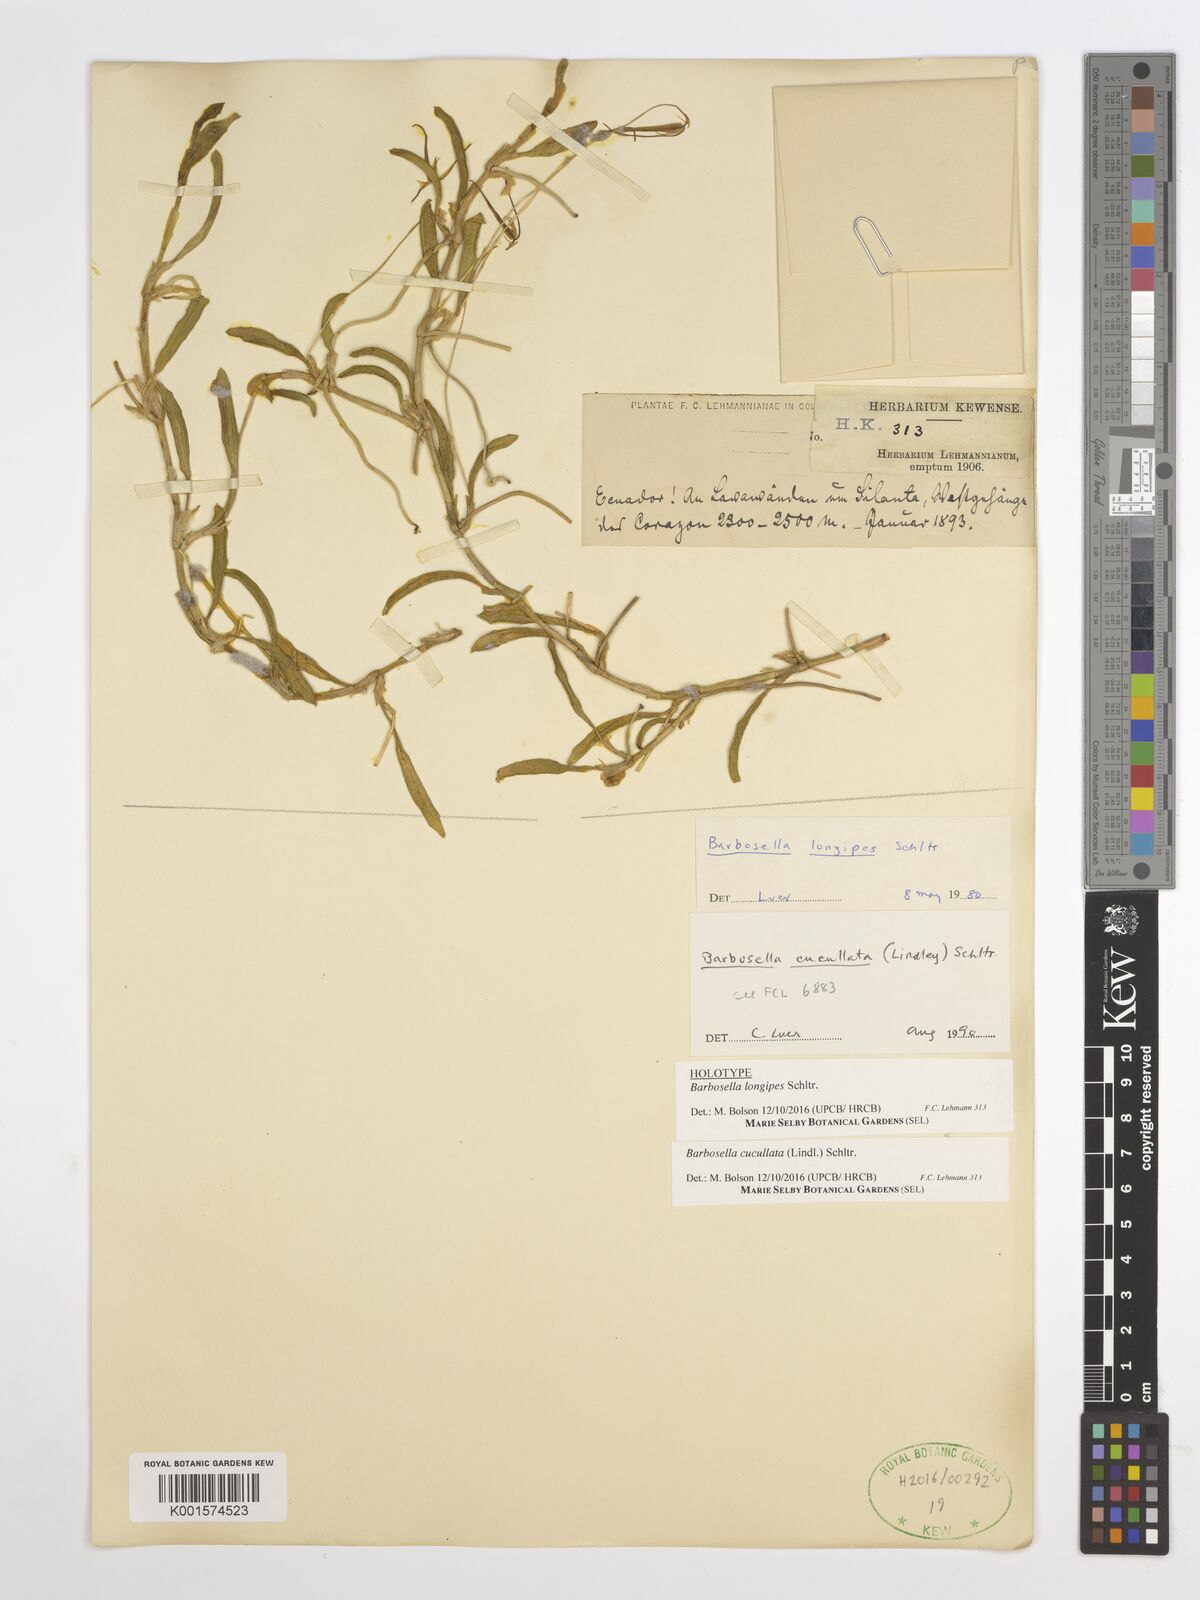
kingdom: Plantae
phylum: Tracheophyta
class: Liliopsida
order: Asparagales
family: Orchidaceae
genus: Barbosella
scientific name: Barbosella cucullata
